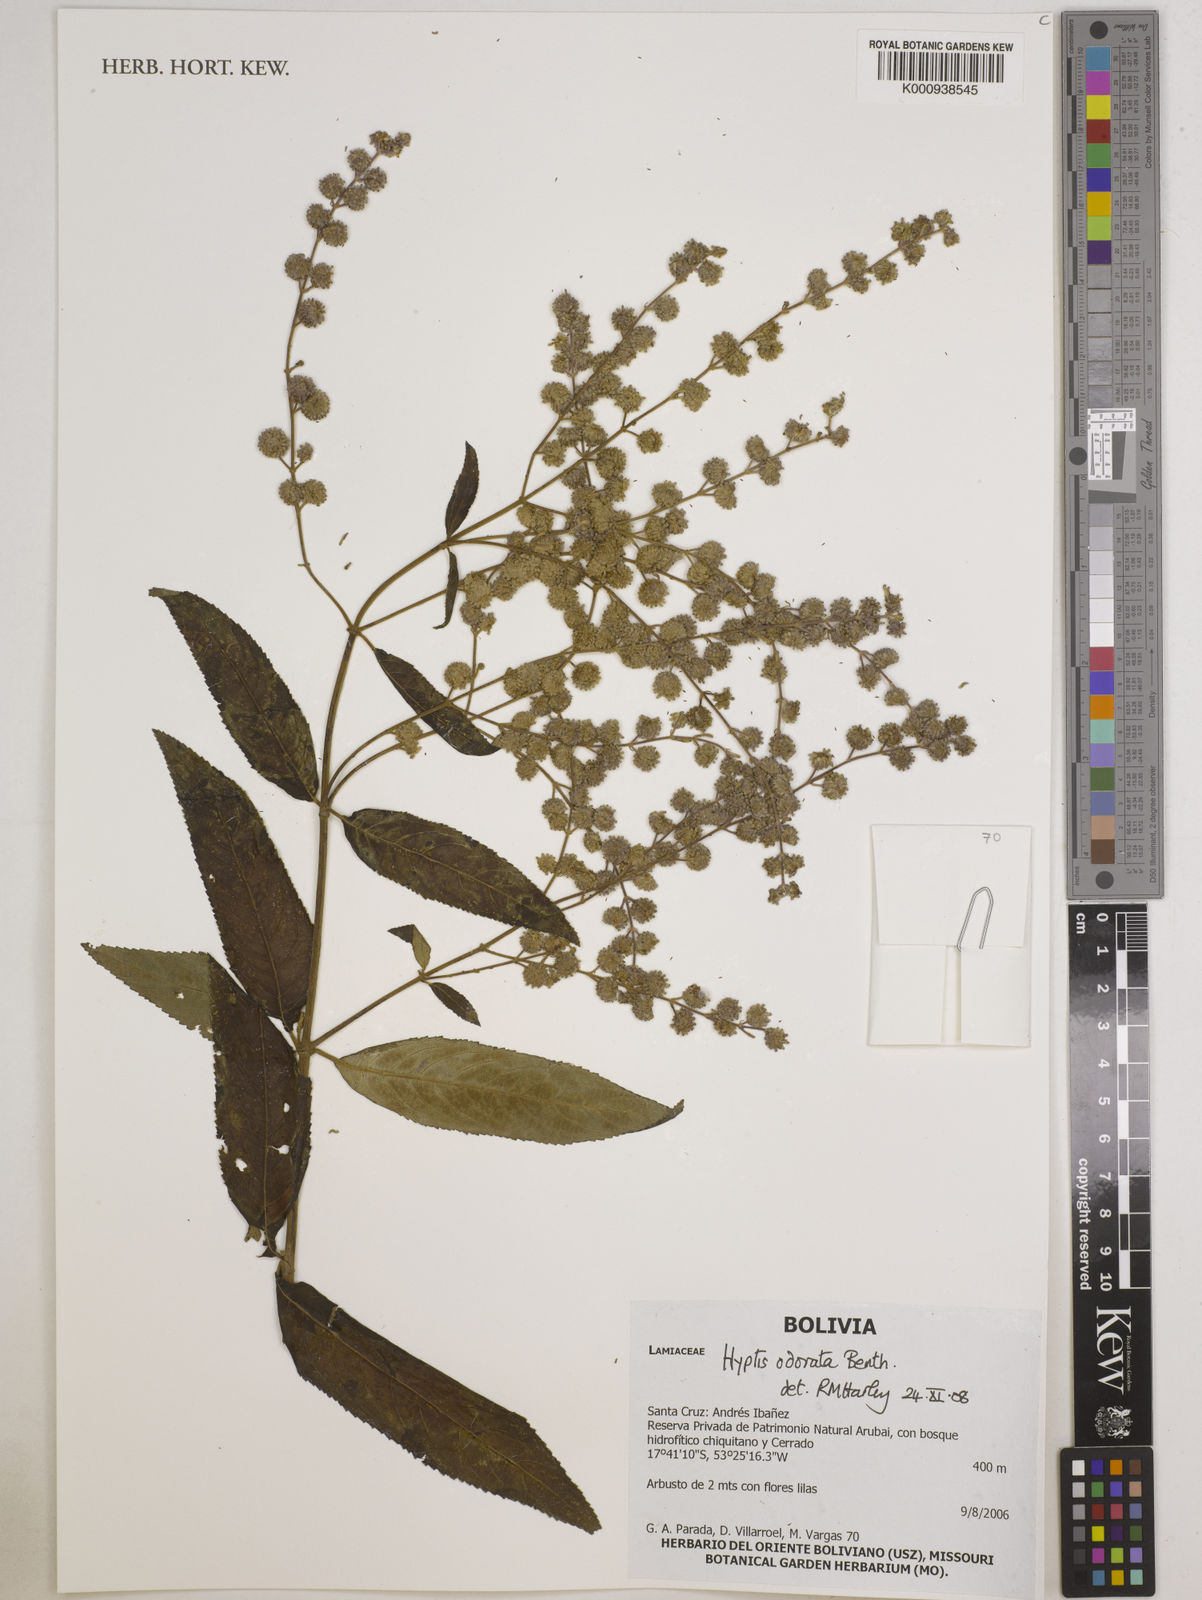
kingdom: Plantae
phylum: Tracheophyta
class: Magnoliopsida
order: Lamiales
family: Lamiaceae
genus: Hyptis
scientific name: Hyptis odorata
